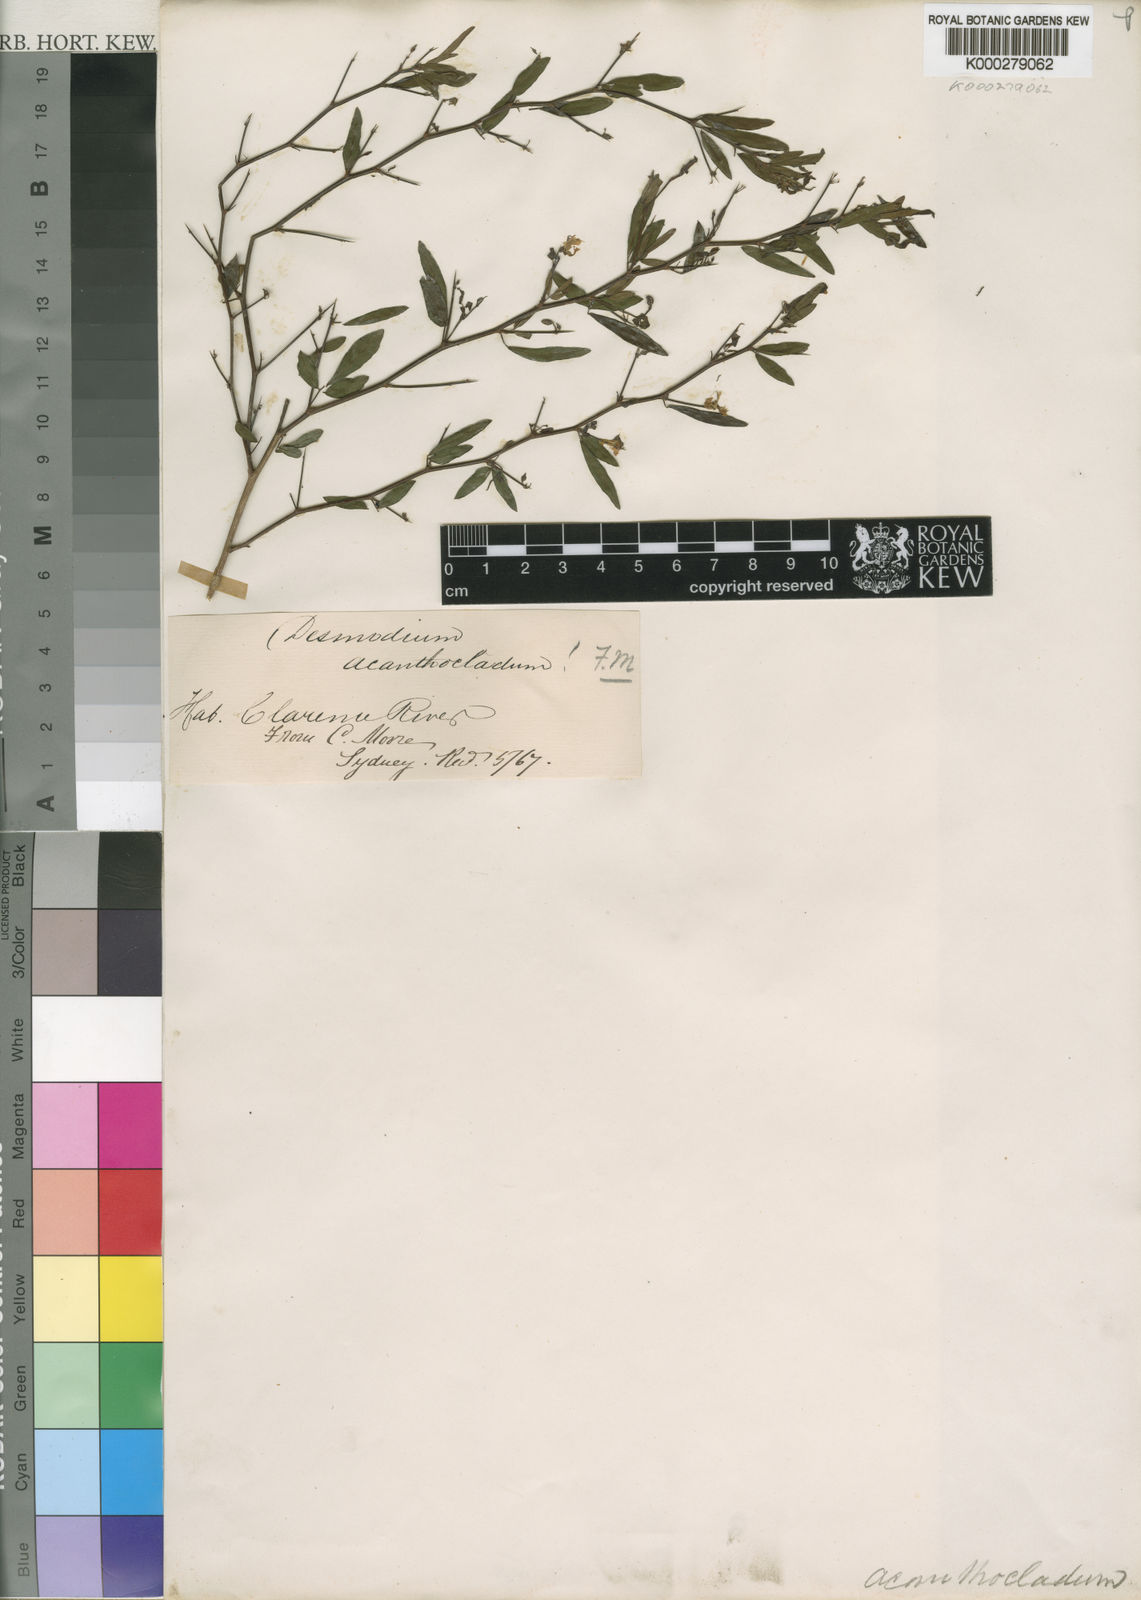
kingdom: Plantae
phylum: Tracheophyta
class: Magnoliopsida
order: Fabales
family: Fabaceae
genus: Pedleya
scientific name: Pedleya acanthoclada
